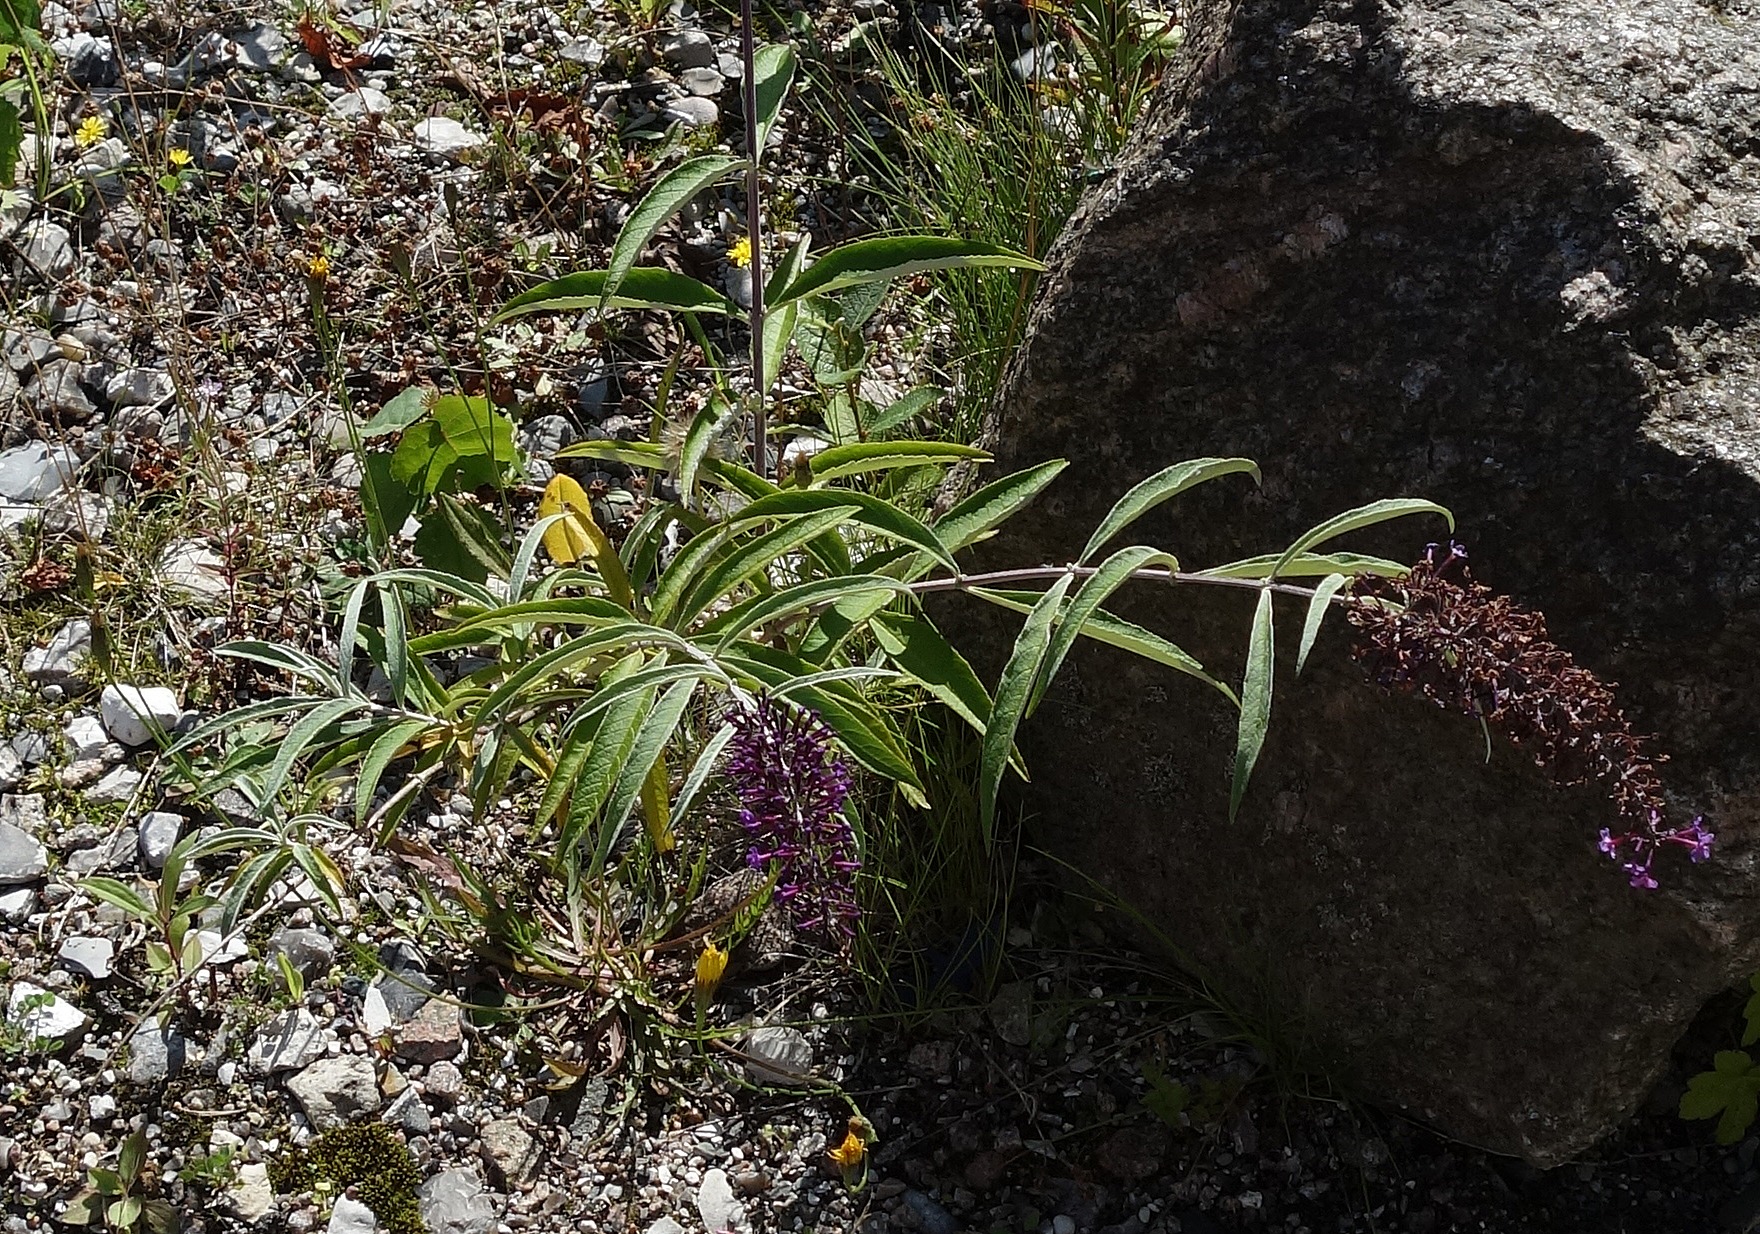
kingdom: Plantae
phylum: Tracheophyta
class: Magnoliopsida
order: Lamiales
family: Scrophulariaceae
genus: Buddleja
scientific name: Buddleja davidii
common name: Sommerfuglebusk
